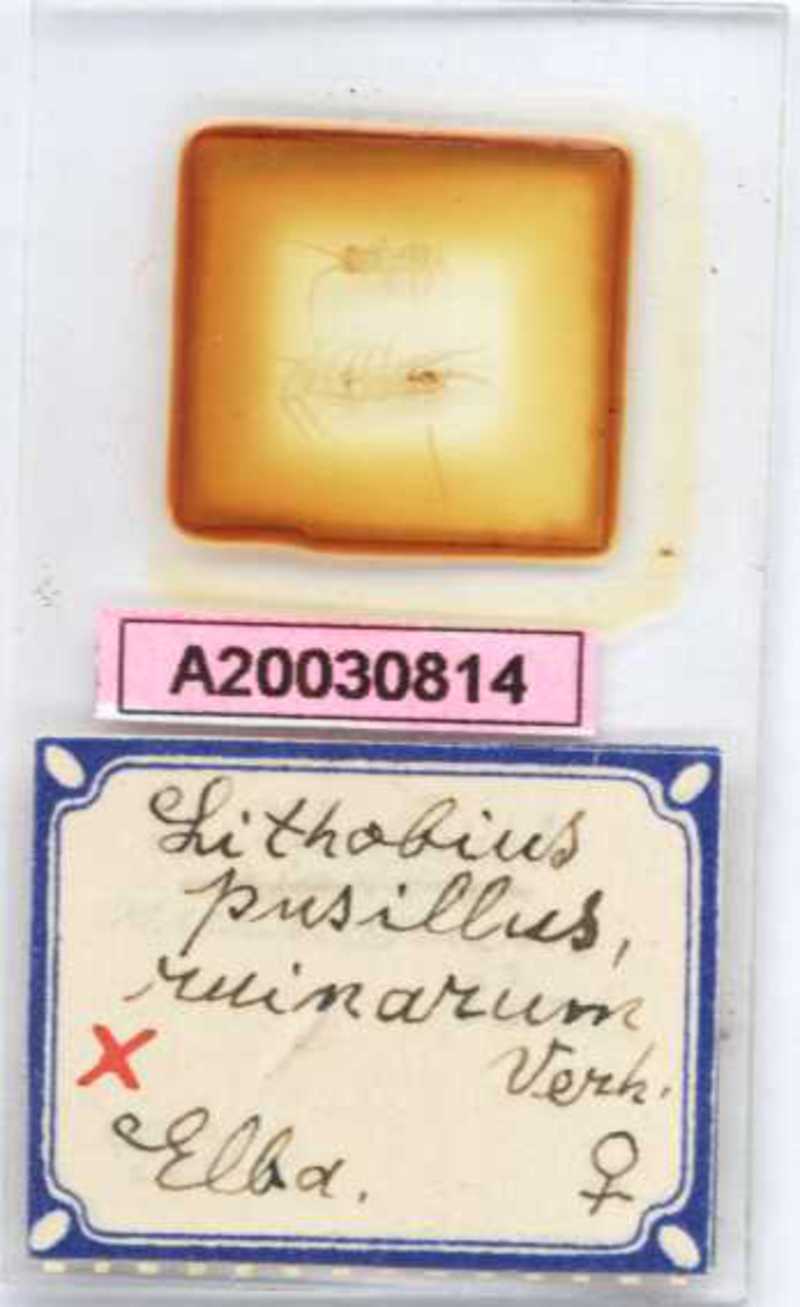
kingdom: Animalia
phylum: Arthropoda
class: Chilopoda
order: Lithobiomorpha
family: Lithobiidae
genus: Lithobius
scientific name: Lithobius
